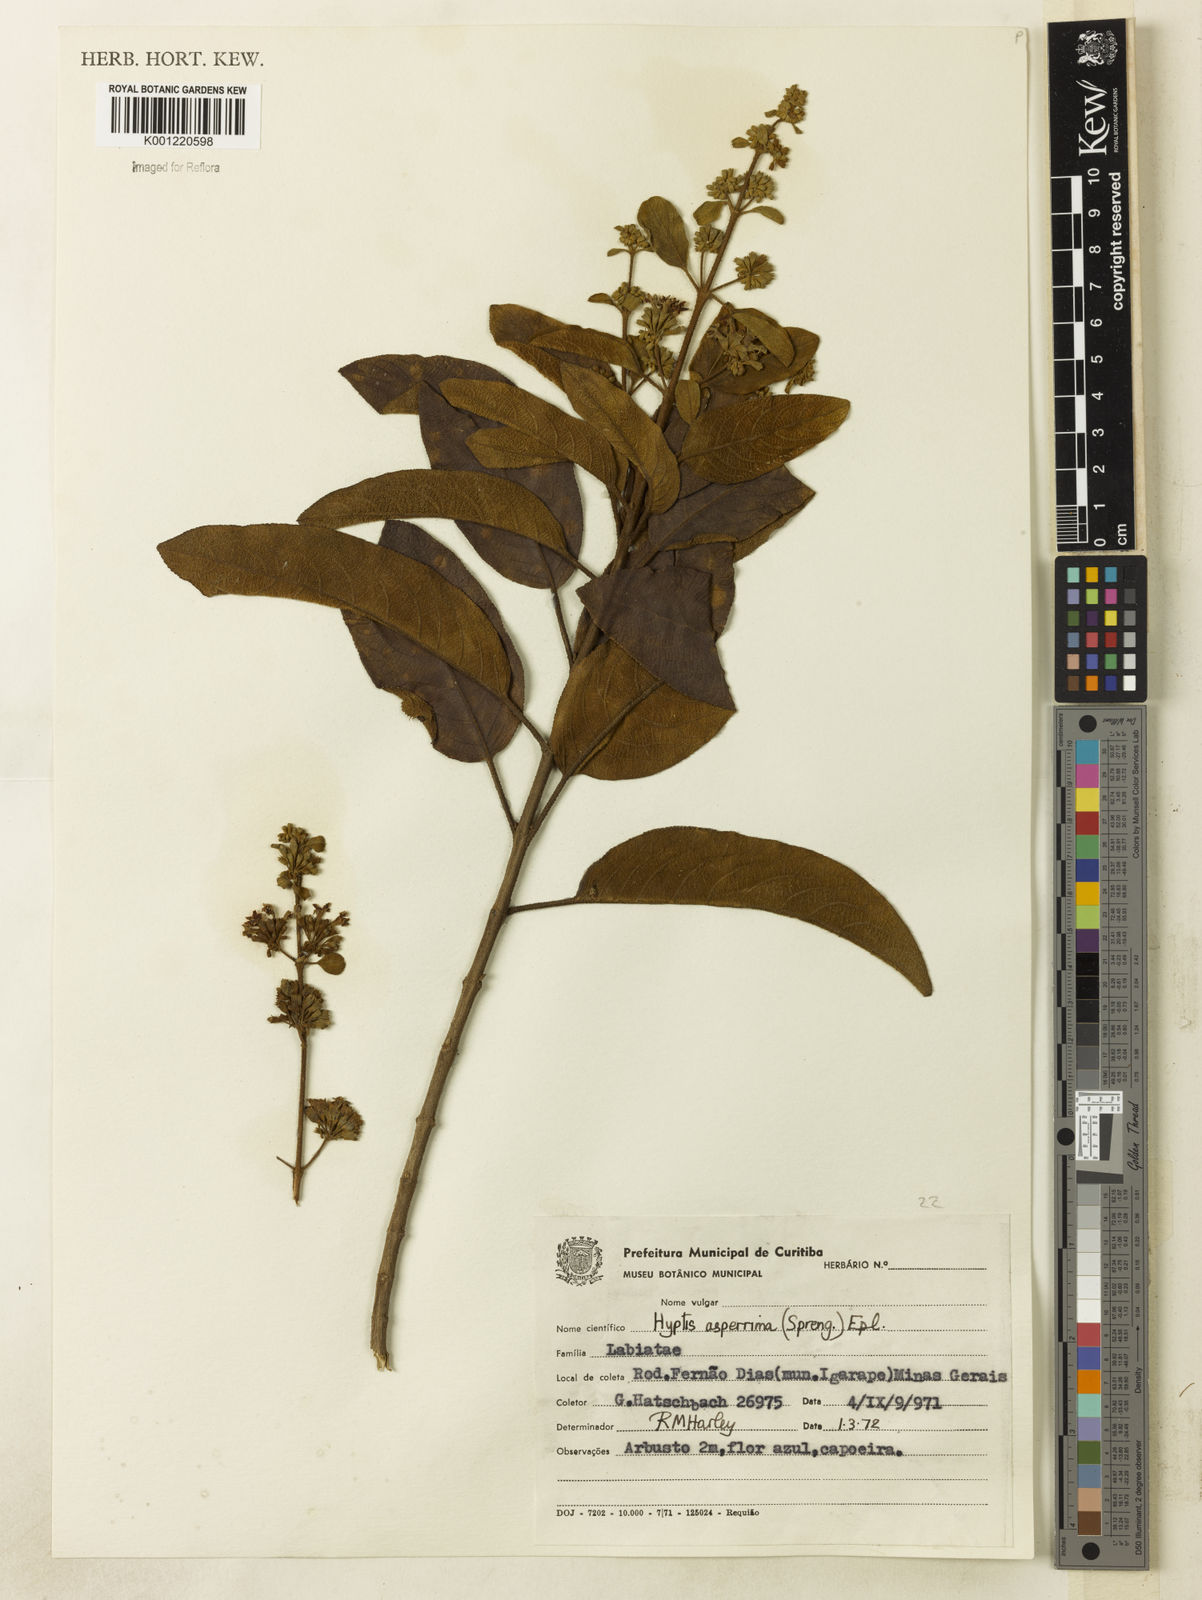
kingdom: Plantae
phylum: Tracheophyta
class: Magnoliopsida
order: Lamiales
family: Lamiaceae
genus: Hyptidendron
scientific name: Hyptidendron asperrimum
